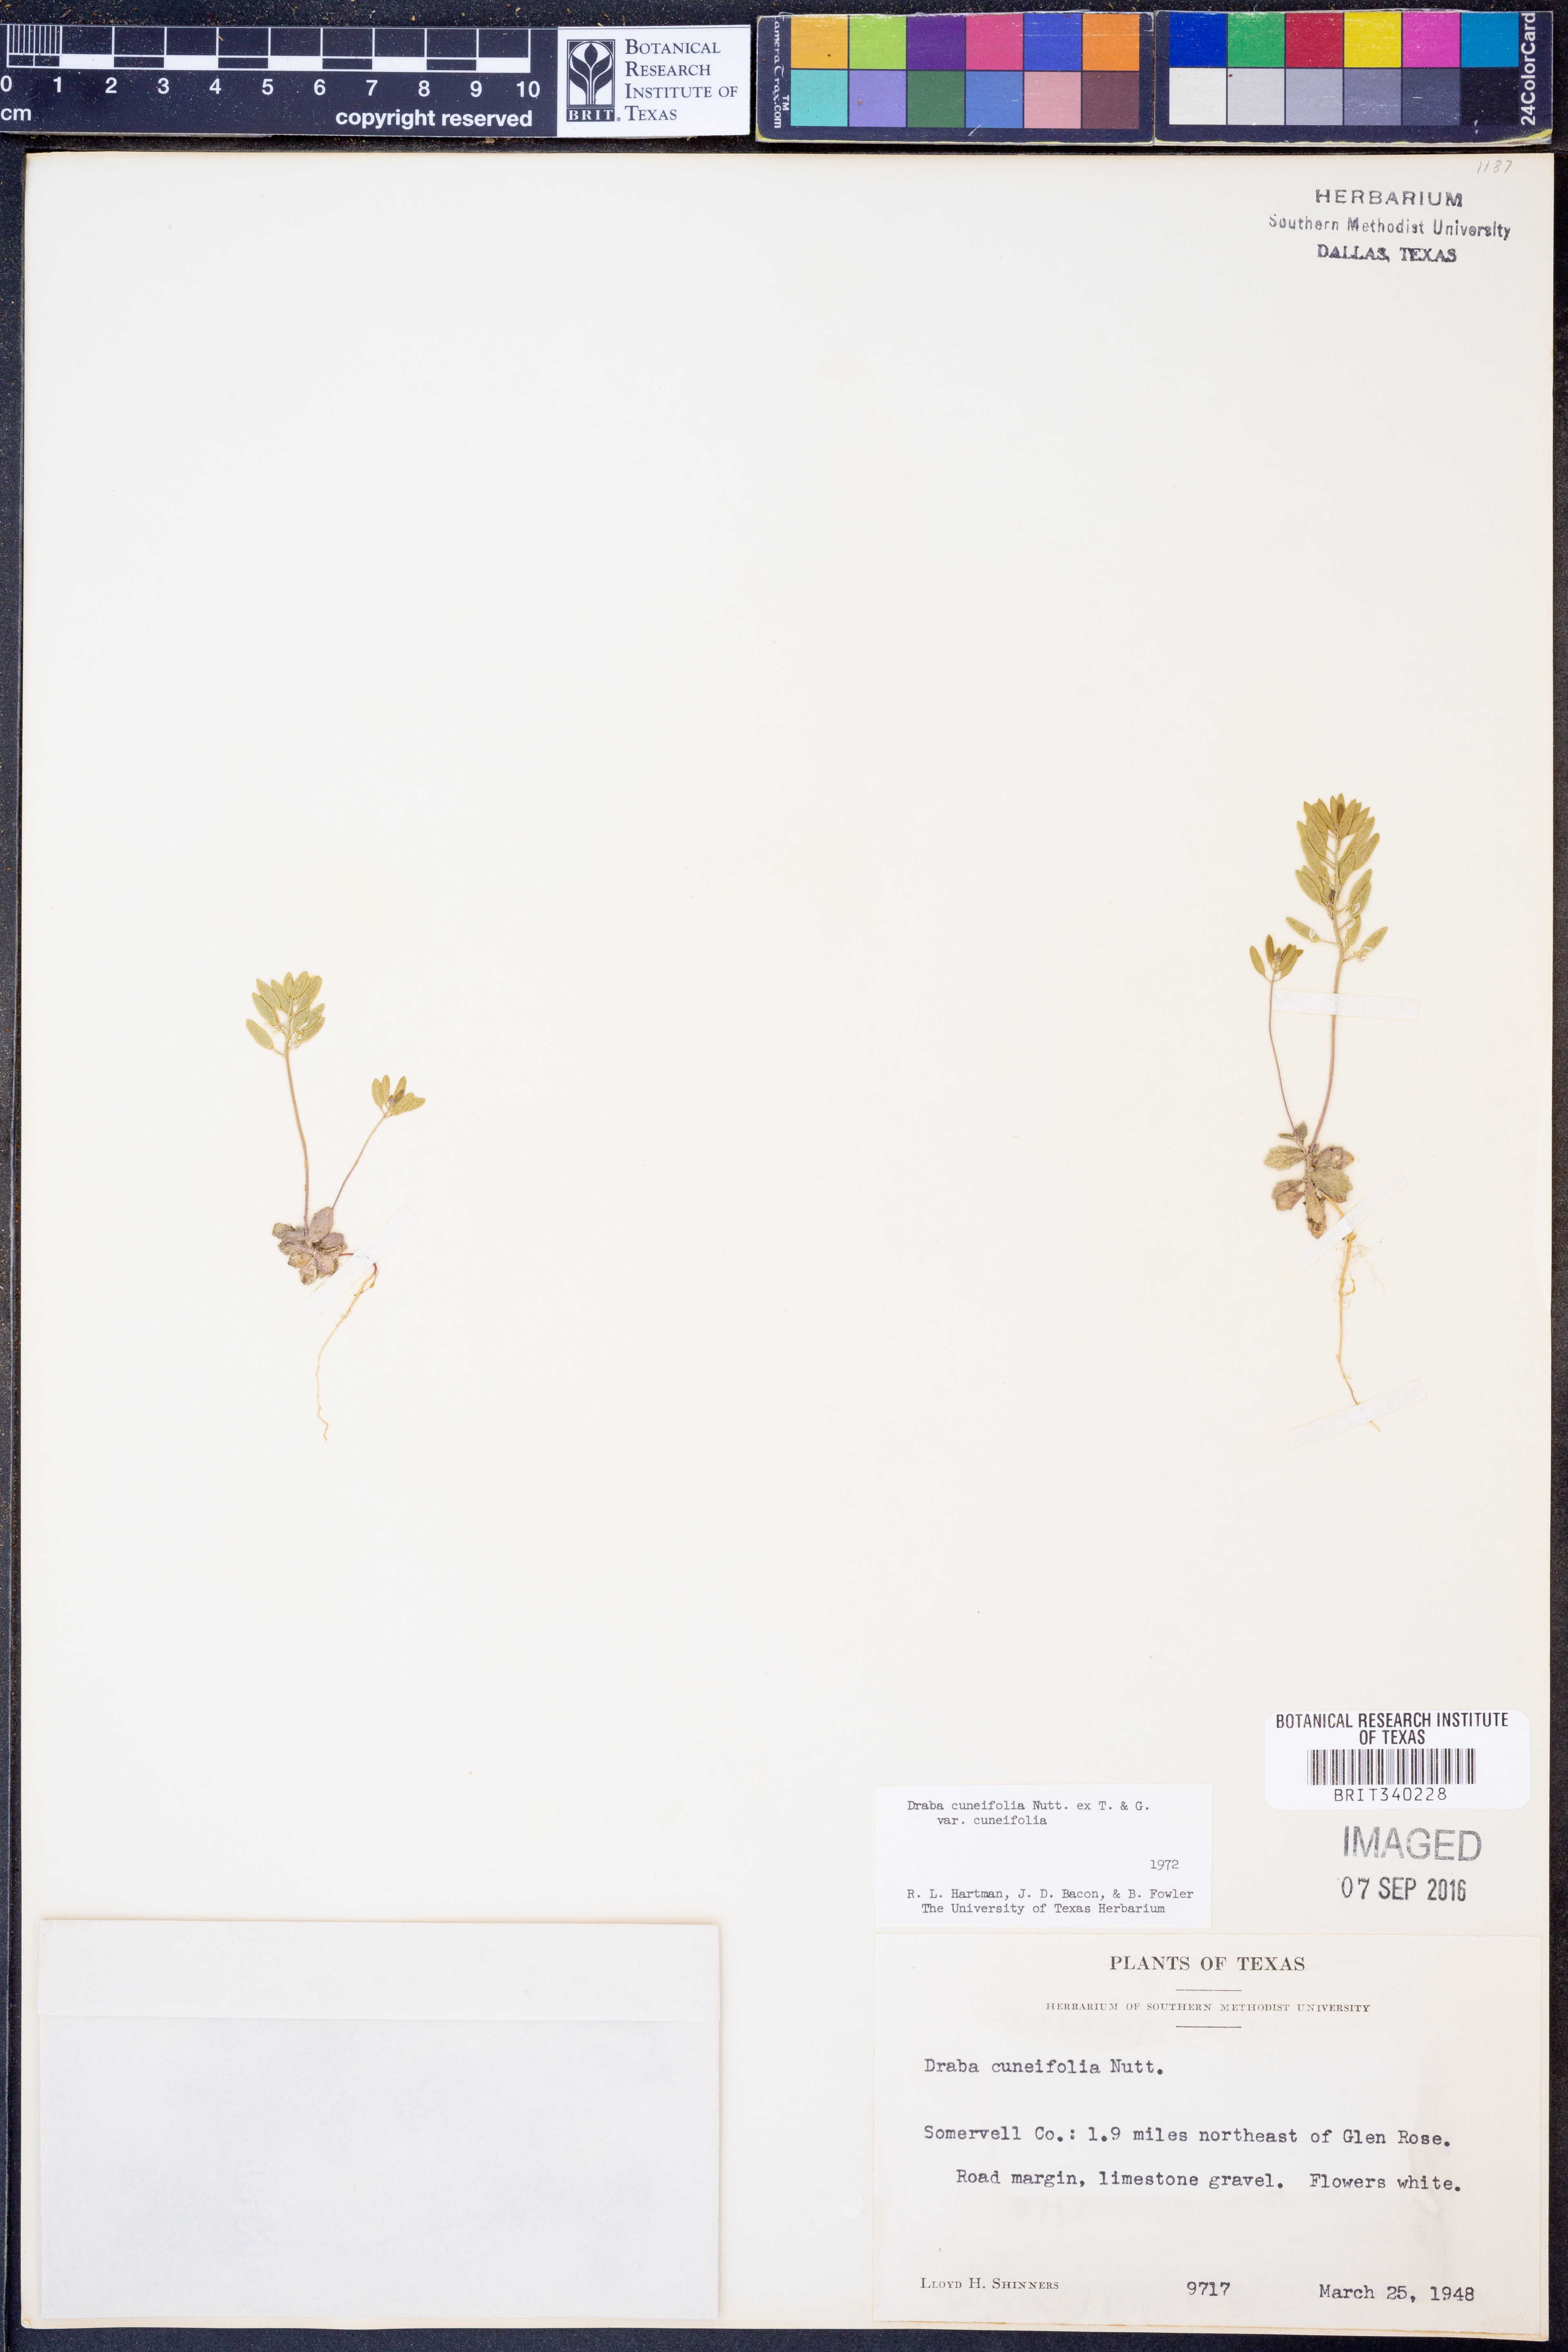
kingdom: Plantae
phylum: Tracheophyta
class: Magnoliopsida
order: Brassicales
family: Brassicaceae
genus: Tomostima
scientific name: Tomostima cuneifolia
